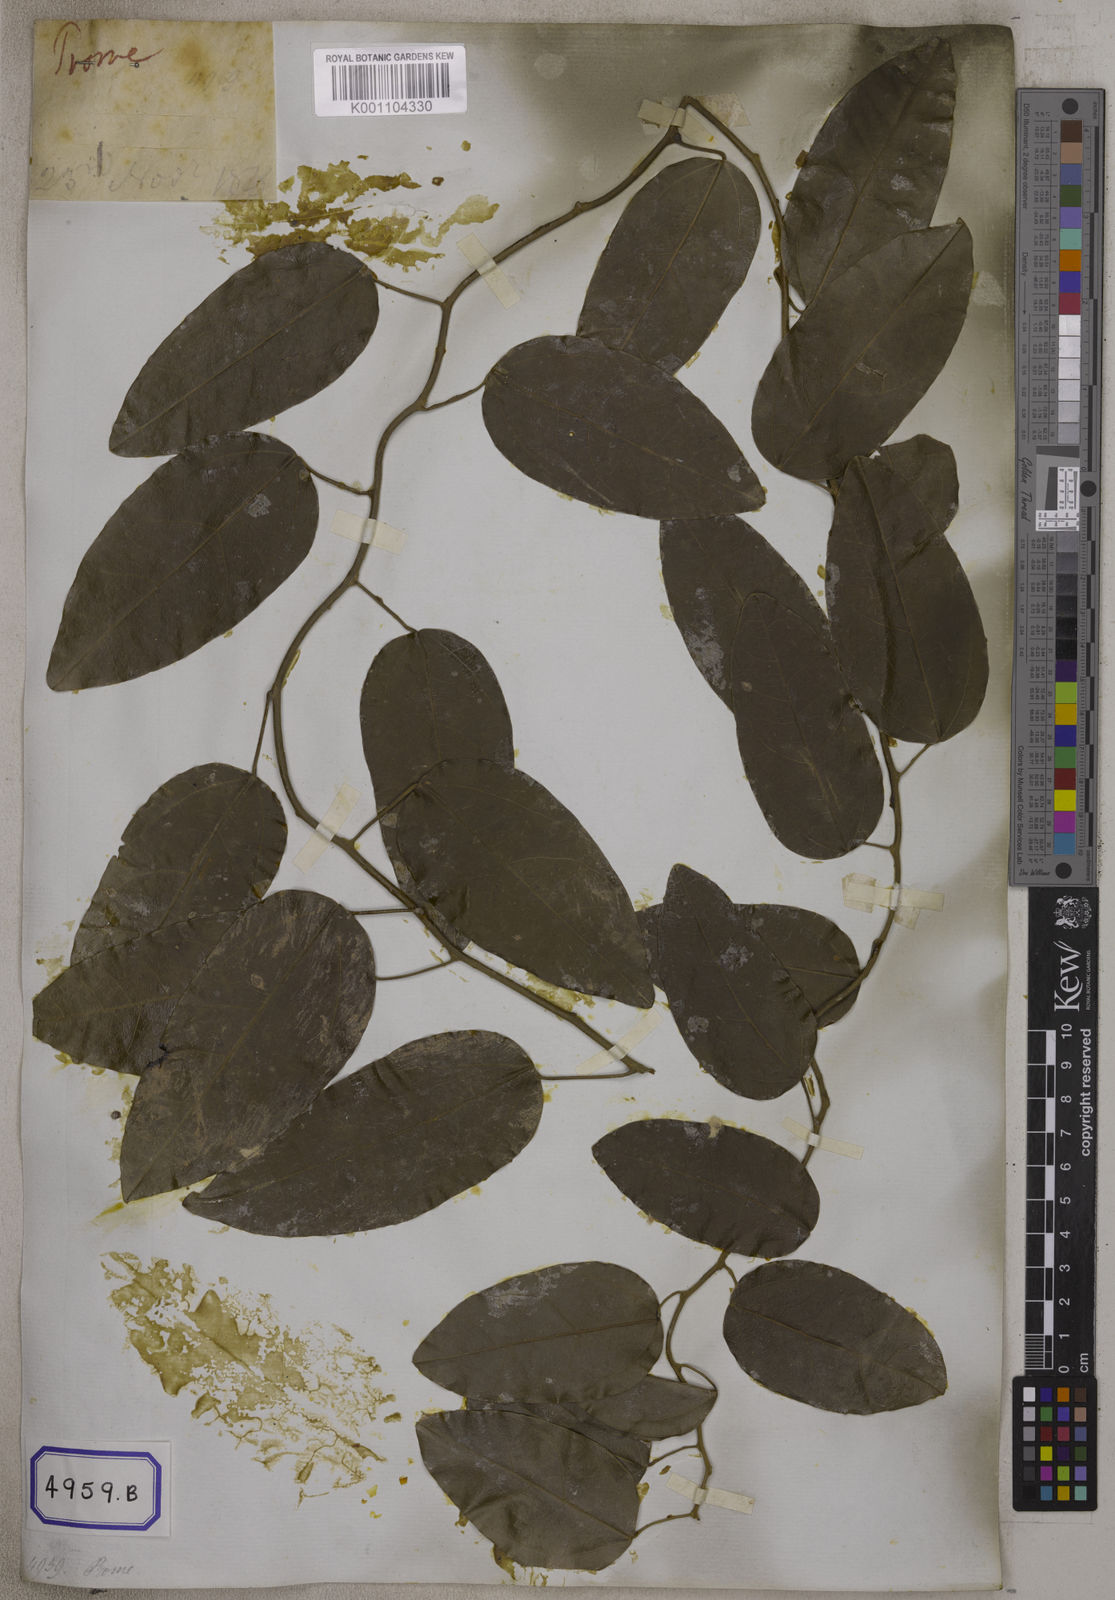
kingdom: Plantae
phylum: Tracheophyta
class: Magnoliopsida
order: Ranunculales
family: Menispermaceae
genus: Pachygone
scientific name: Pachygone ovata
